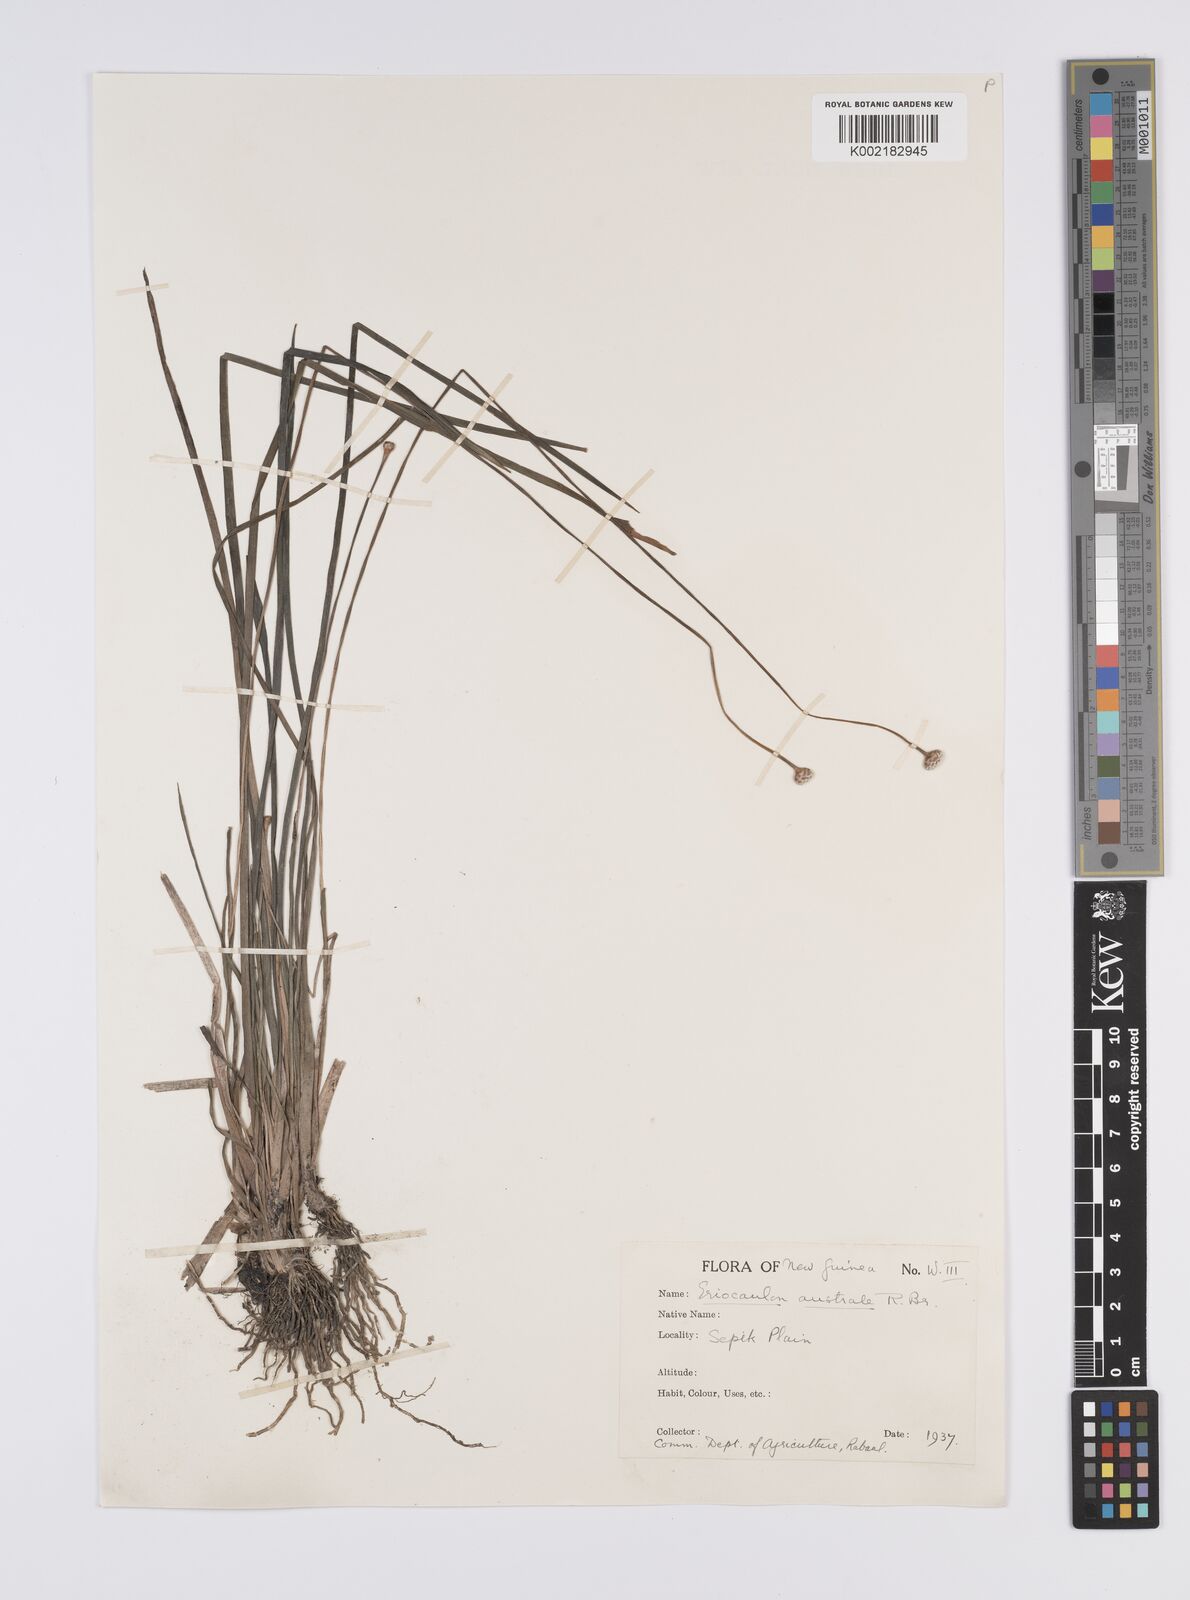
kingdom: Plantae
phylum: Tracheophyta
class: Liliopsida
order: Poales
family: Eriocaulaceae
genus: Eriocaulon
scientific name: Eriocaulon australe
